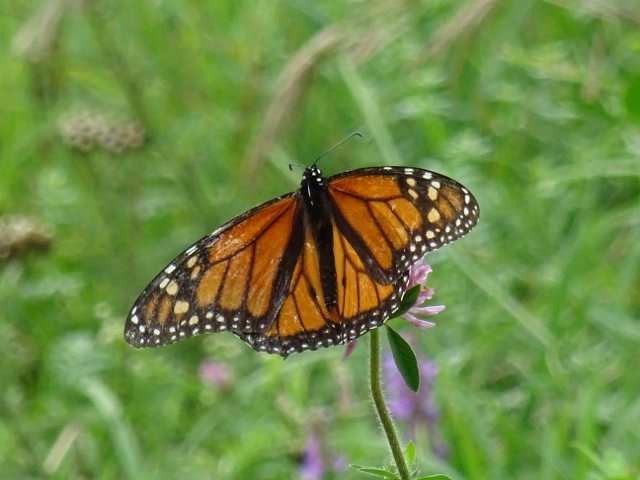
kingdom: Animalia
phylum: Arthropoda
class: Insecta
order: Lepidoptera
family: Nymphalidae
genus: Danaus
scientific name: Danaus plexippus
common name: Monarch
